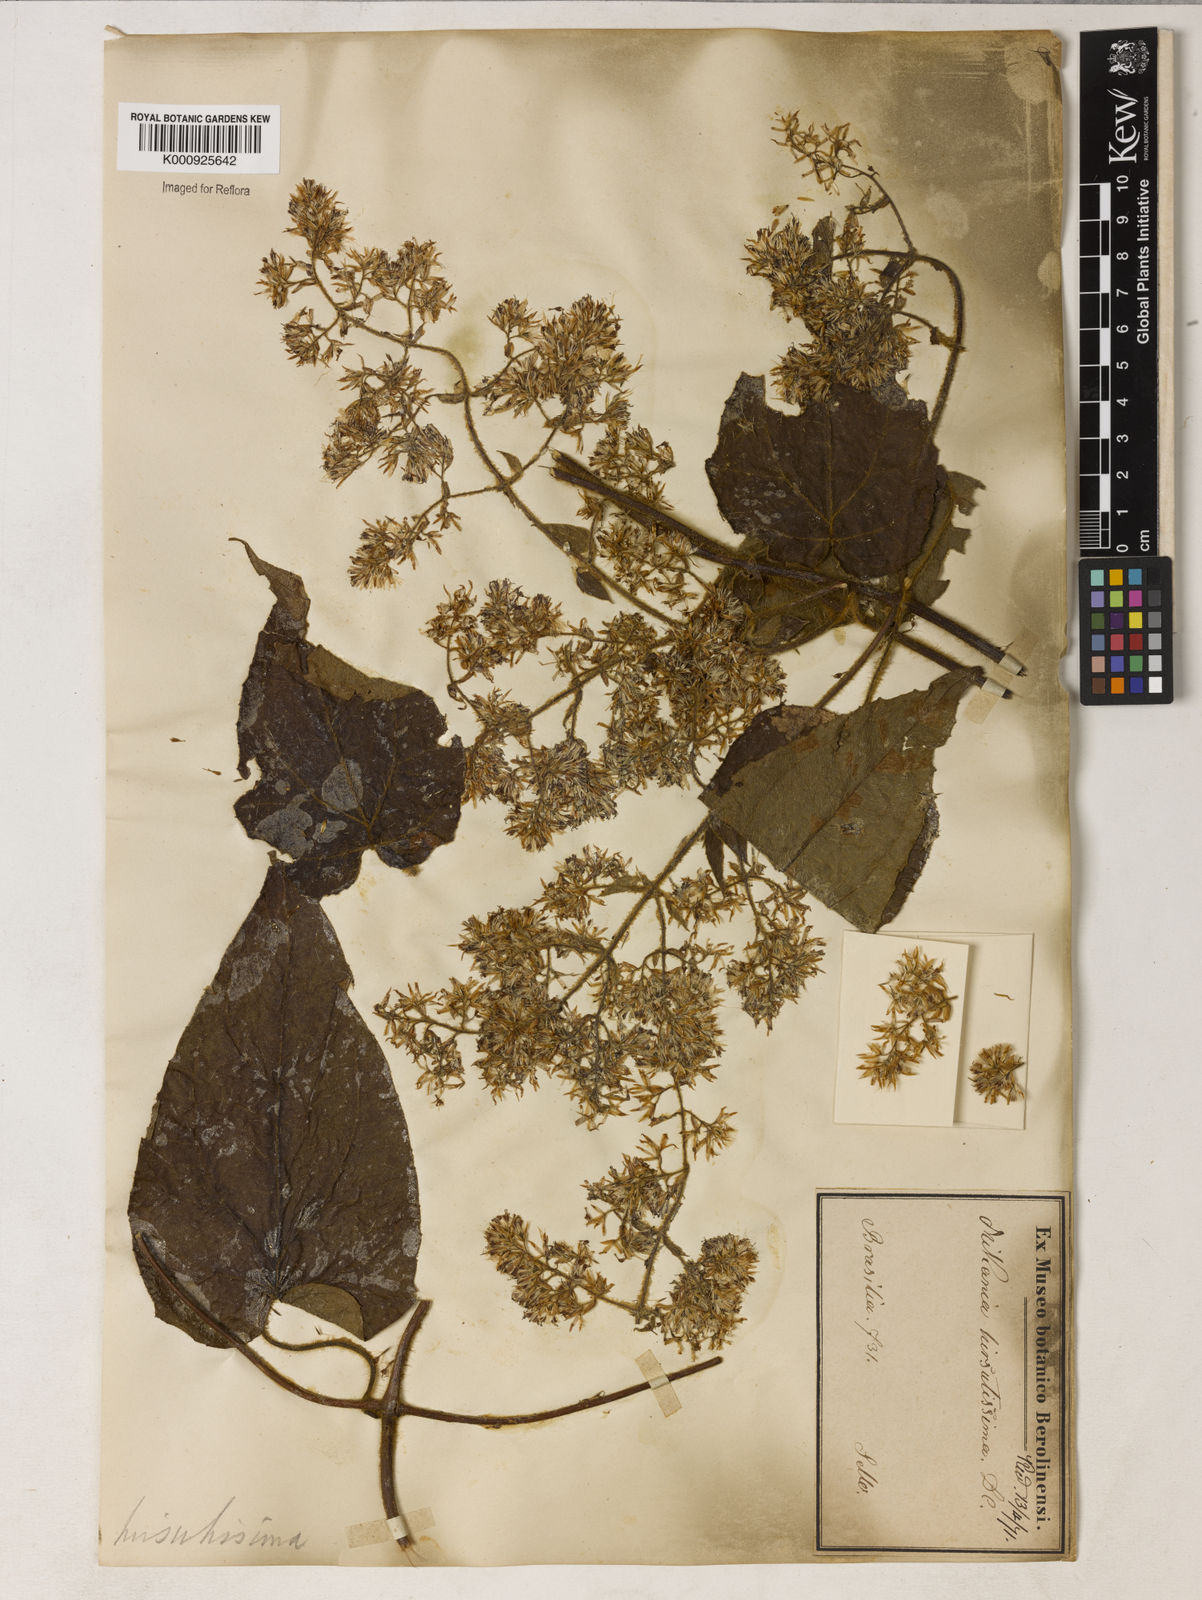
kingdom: Plantae
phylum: Tracheophyta
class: Magnoliopsida
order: Asterales
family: Asteraceae
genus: Mikania
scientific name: Mikania banisteriae
